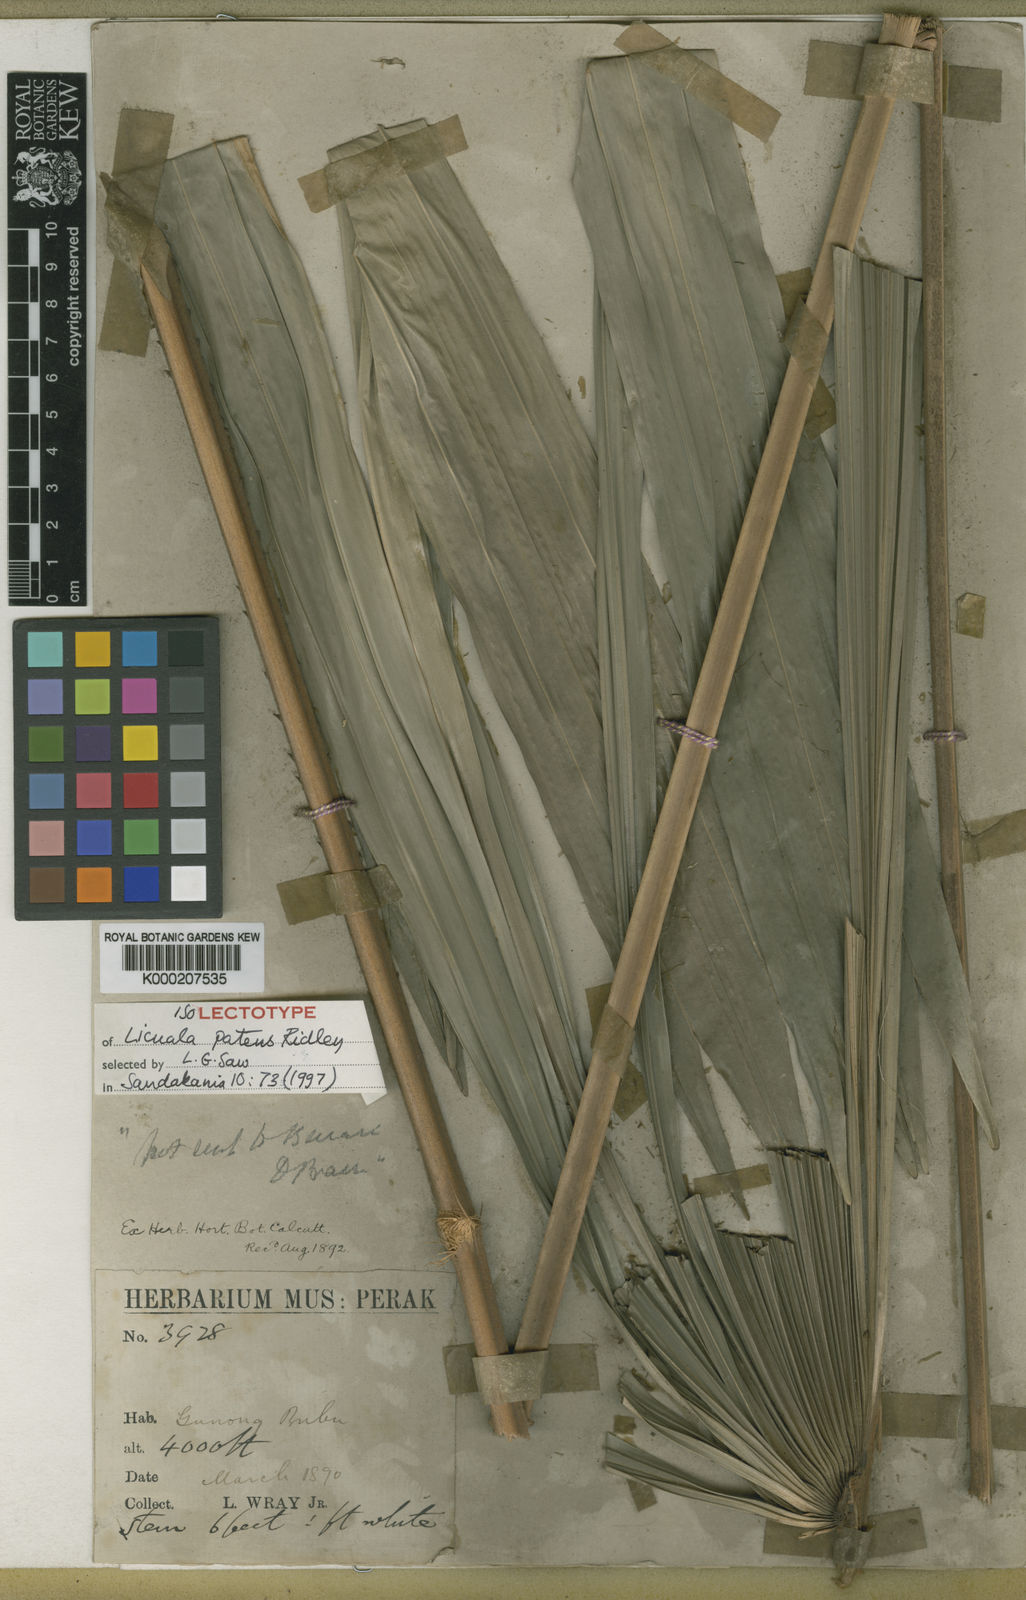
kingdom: Plantae
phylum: Tracheophyta
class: Liliopsida
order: Arecales
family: Arecaceae
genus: Licuala
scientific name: Licuala patens
